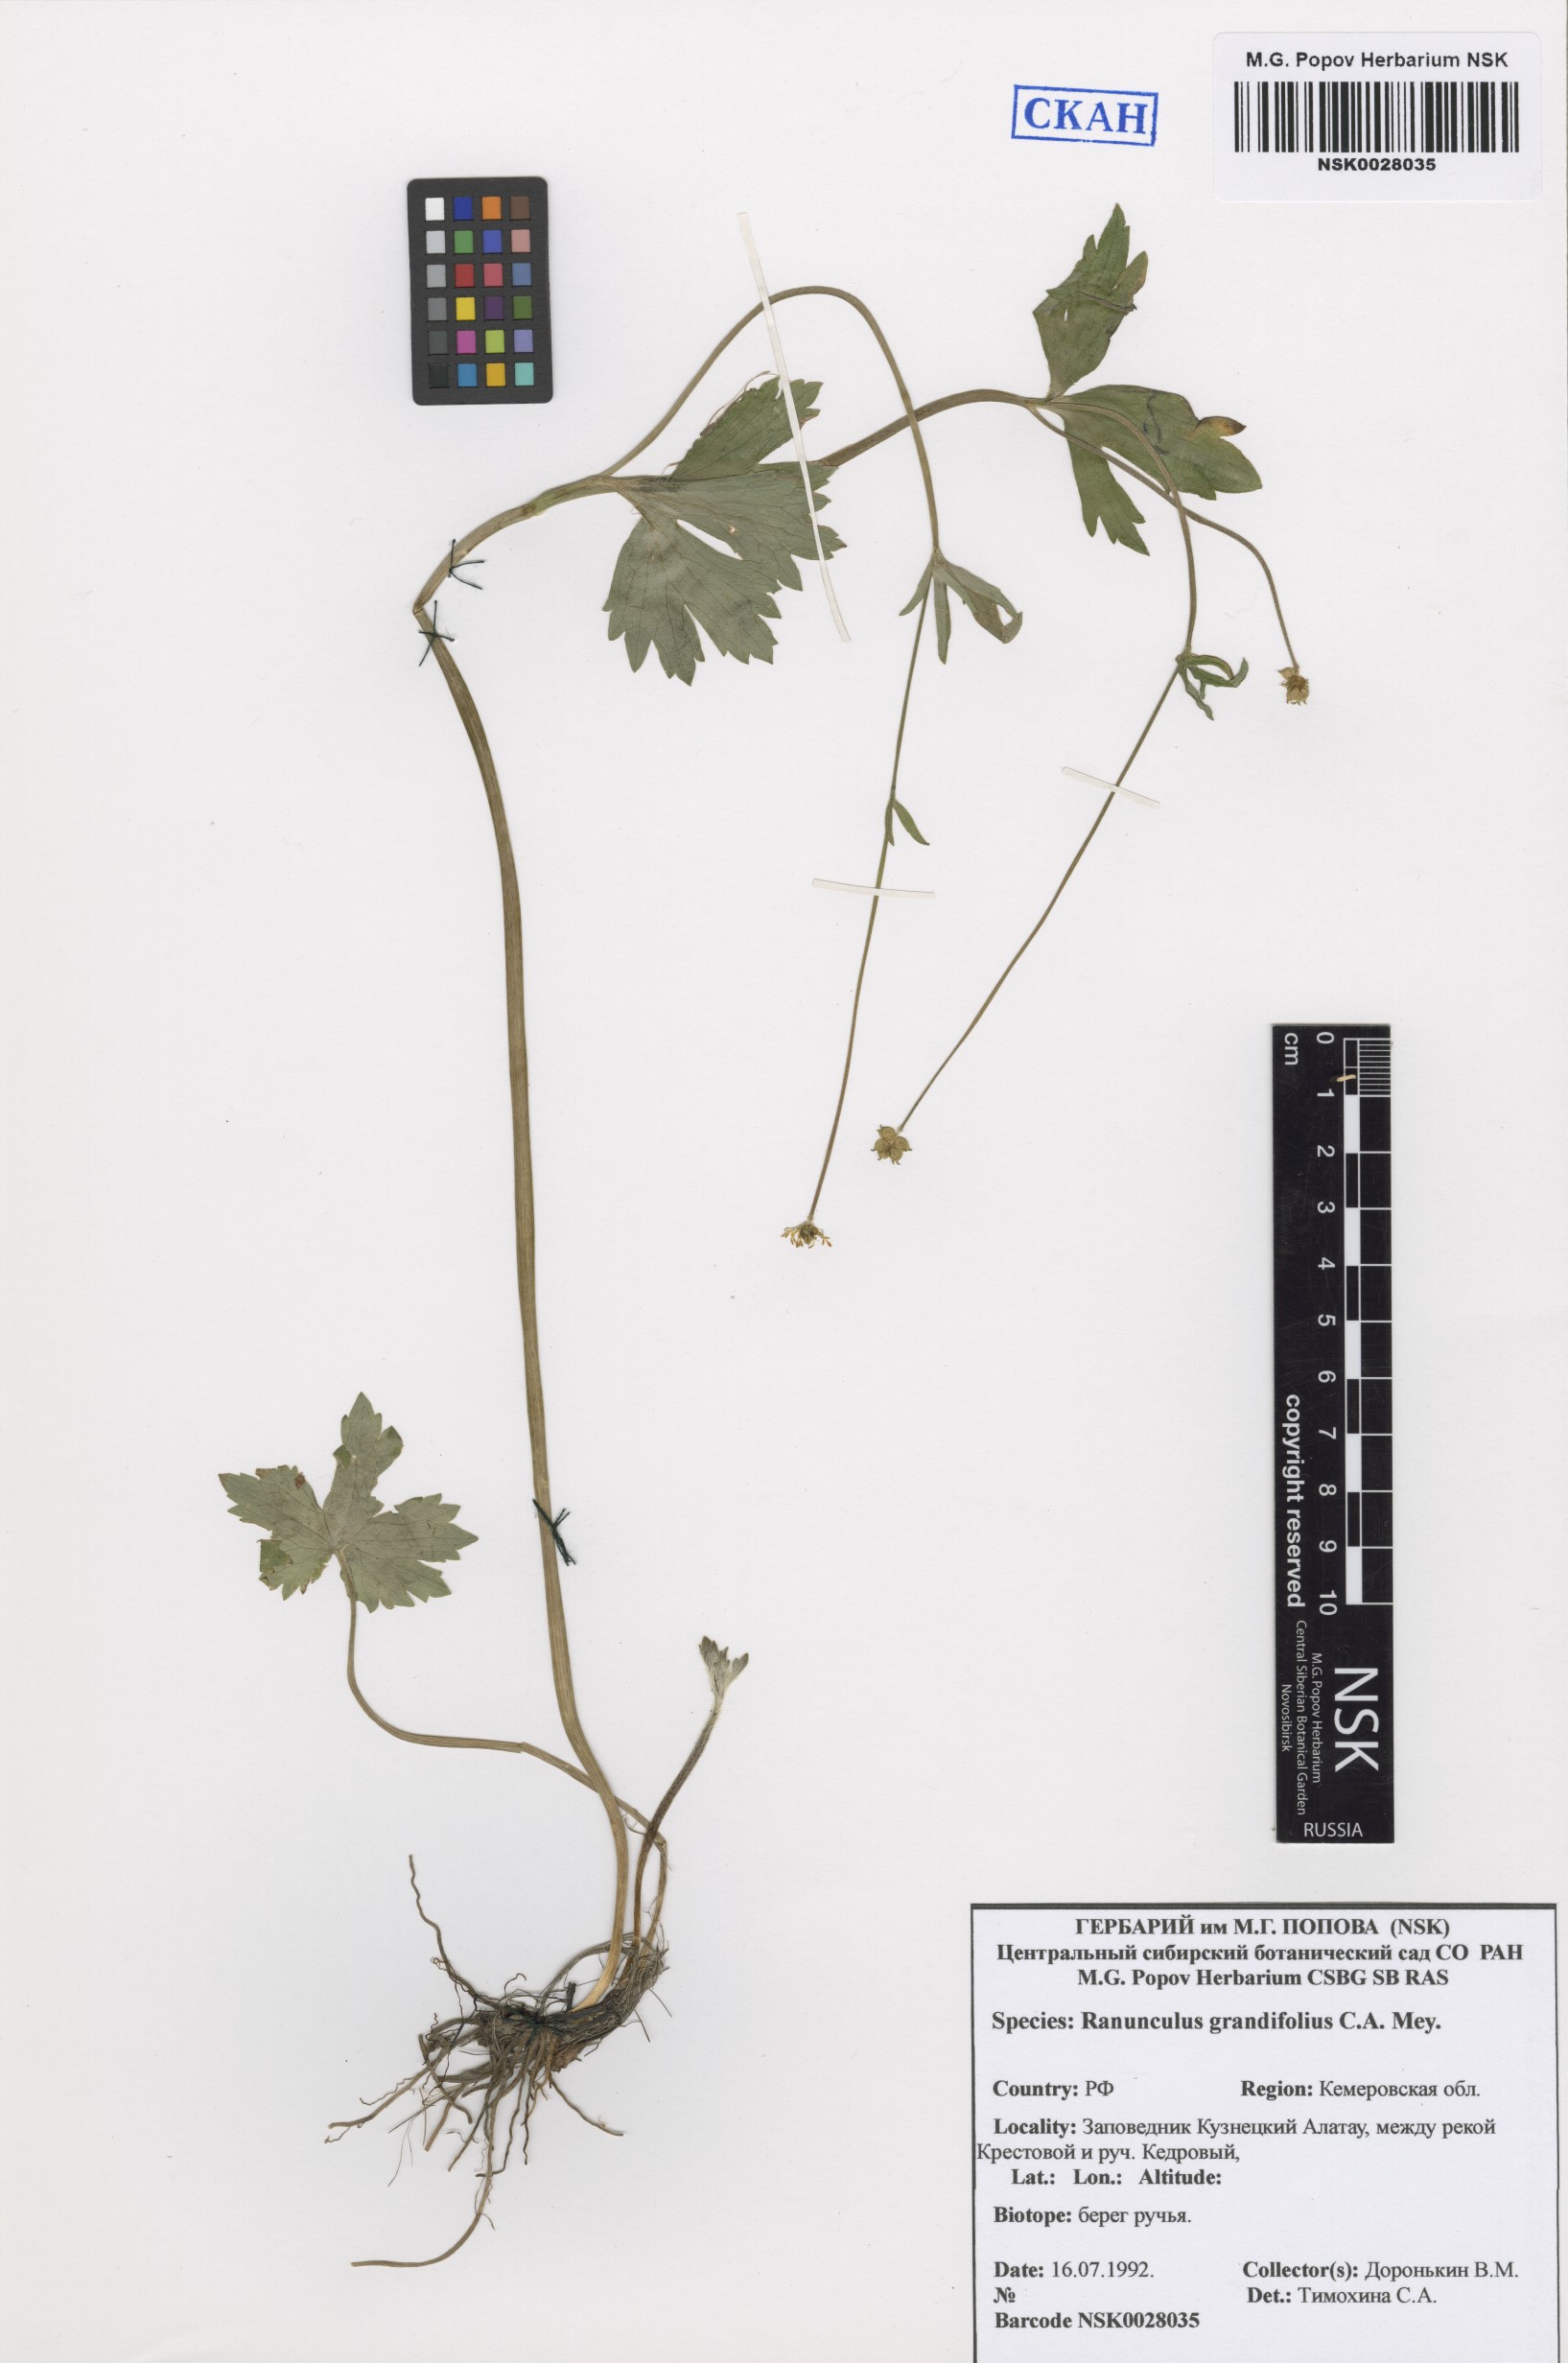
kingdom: Plantae
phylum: Tracheophyta
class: Magnoliopsida
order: Ranunculales
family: Ranunculaceae
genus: Ranunculus
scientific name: Ranunculus grandifolius
